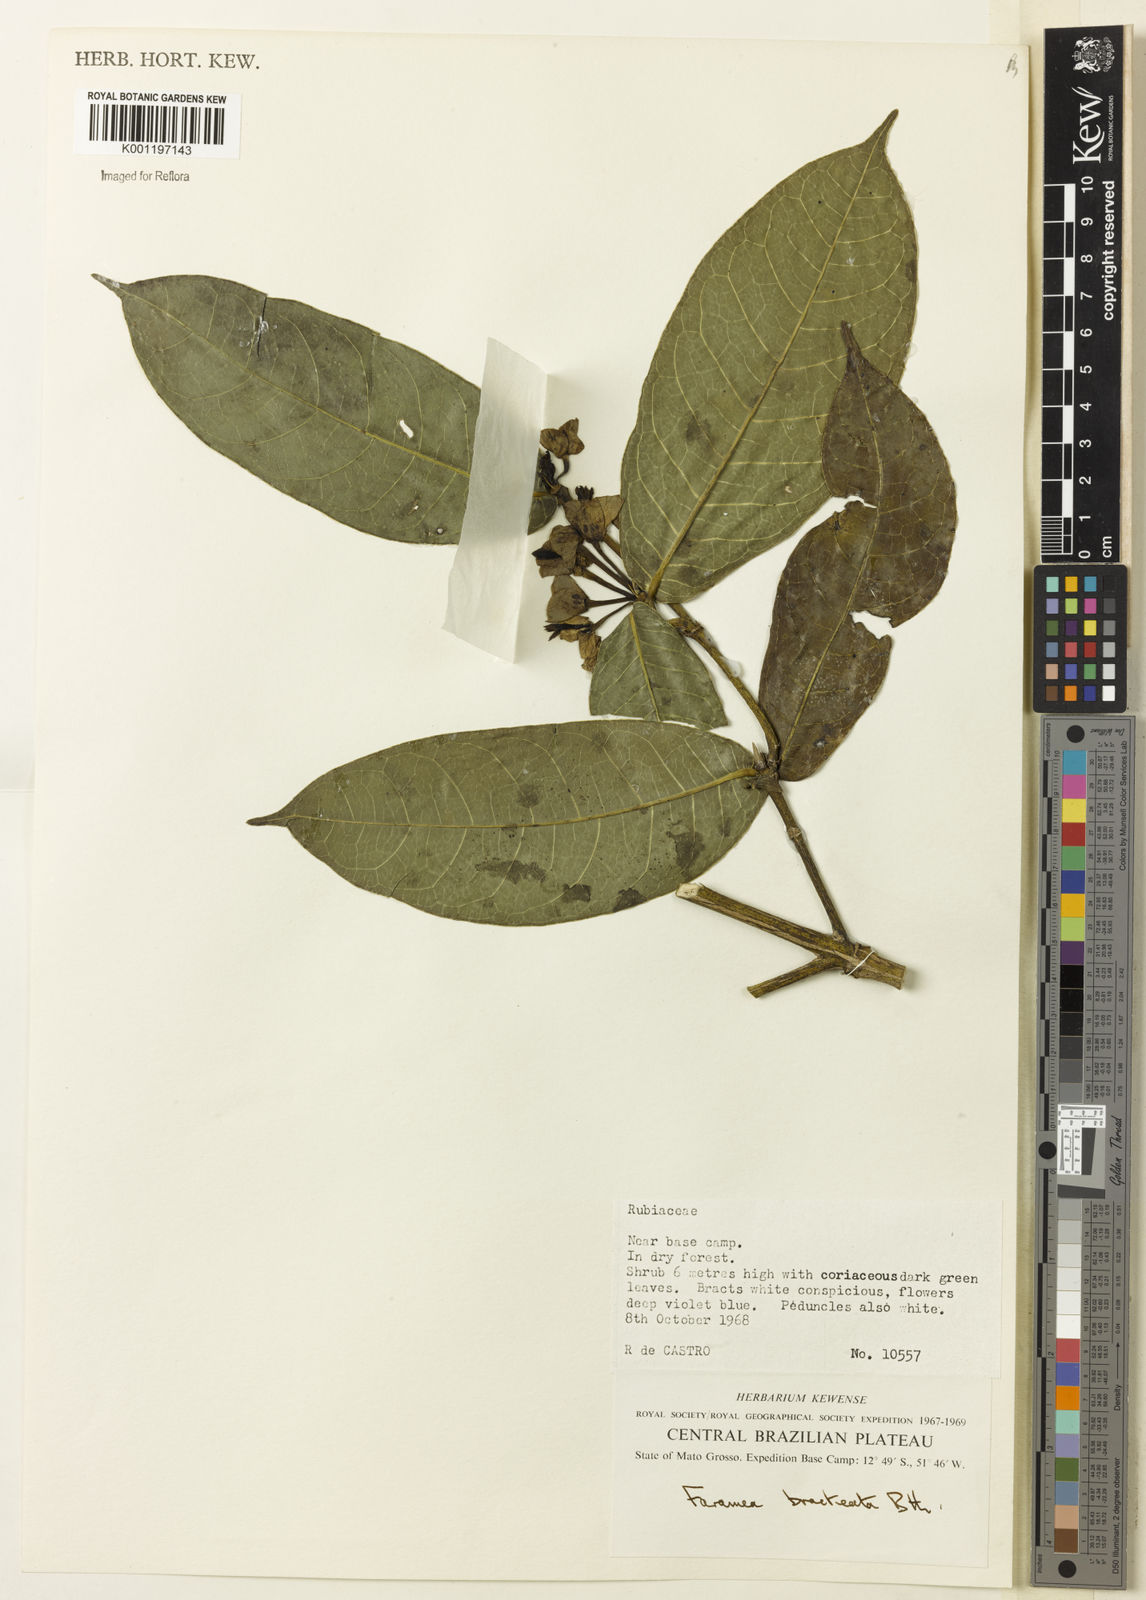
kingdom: Plantae
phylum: Tracheophyta
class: Magnoliopsida
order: Gentianales
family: Rubiaceae
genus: Faramea
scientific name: Faramea bracteata
